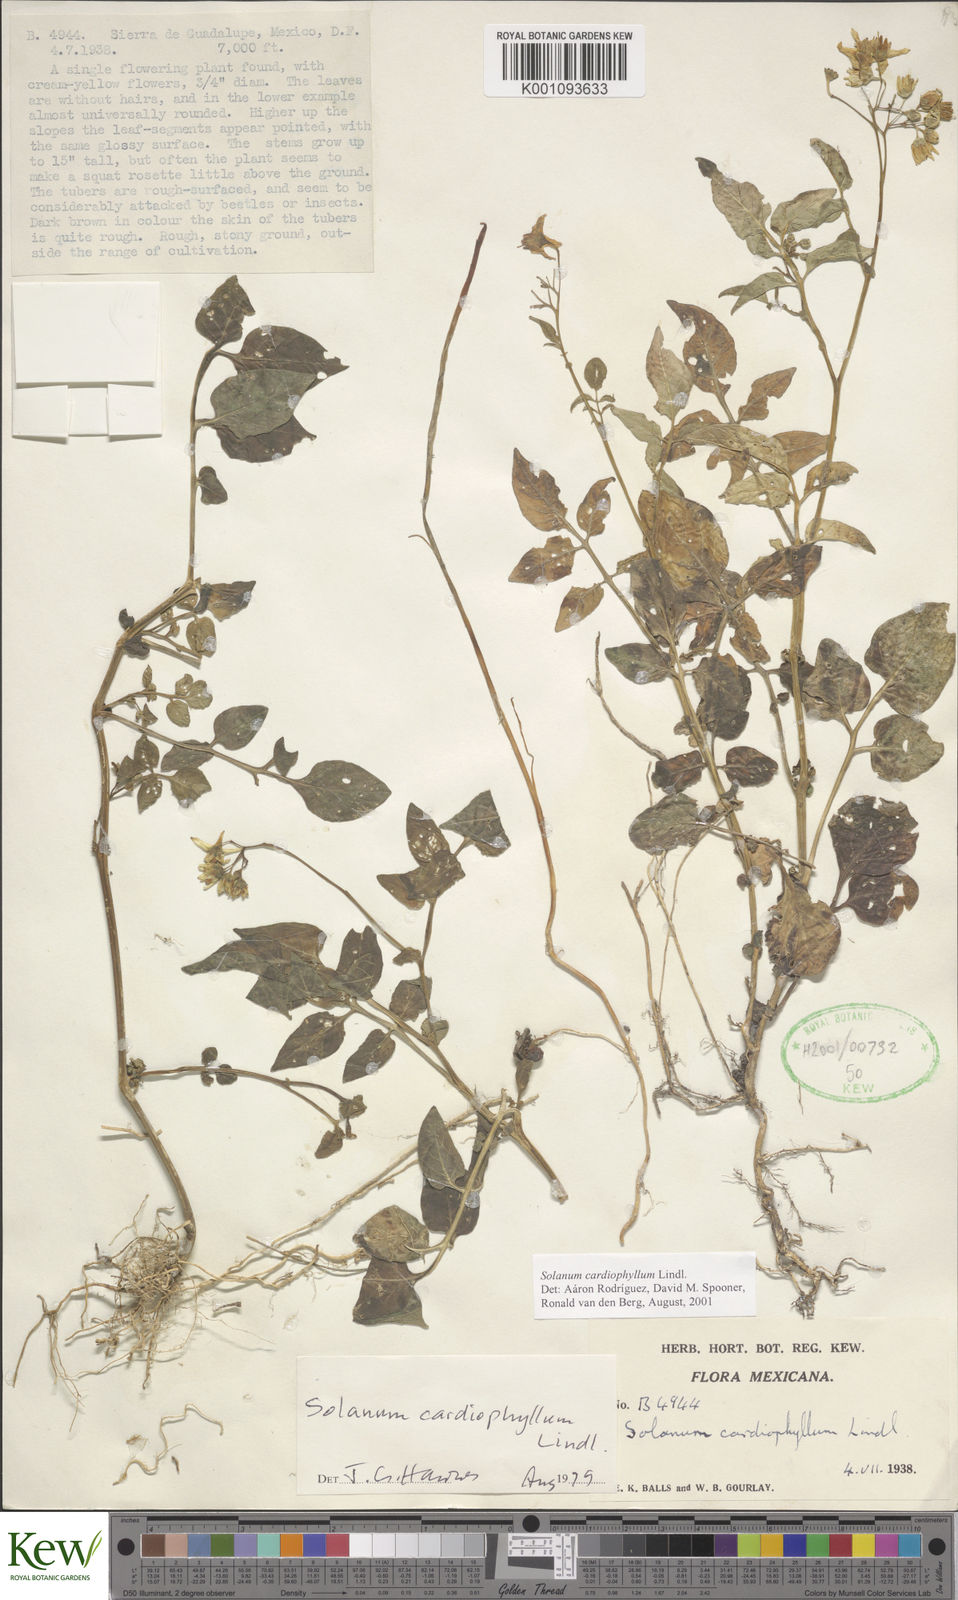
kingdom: Plantae
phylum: Tracheophyta
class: Magnoliopsida
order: Solanales
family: Solanaceae
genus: Solanum
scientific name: Solanum cardiophyllum
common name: Heartleaf horsenettle
